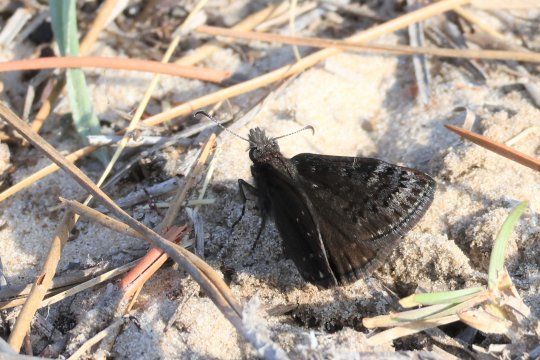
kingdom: Animalia
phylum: Arthropoda
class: Insecta
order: Lepidoptera
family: Hesperiidae
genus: Erynnis
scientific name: Erynnis brizo
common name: Sleepy Duskywing
